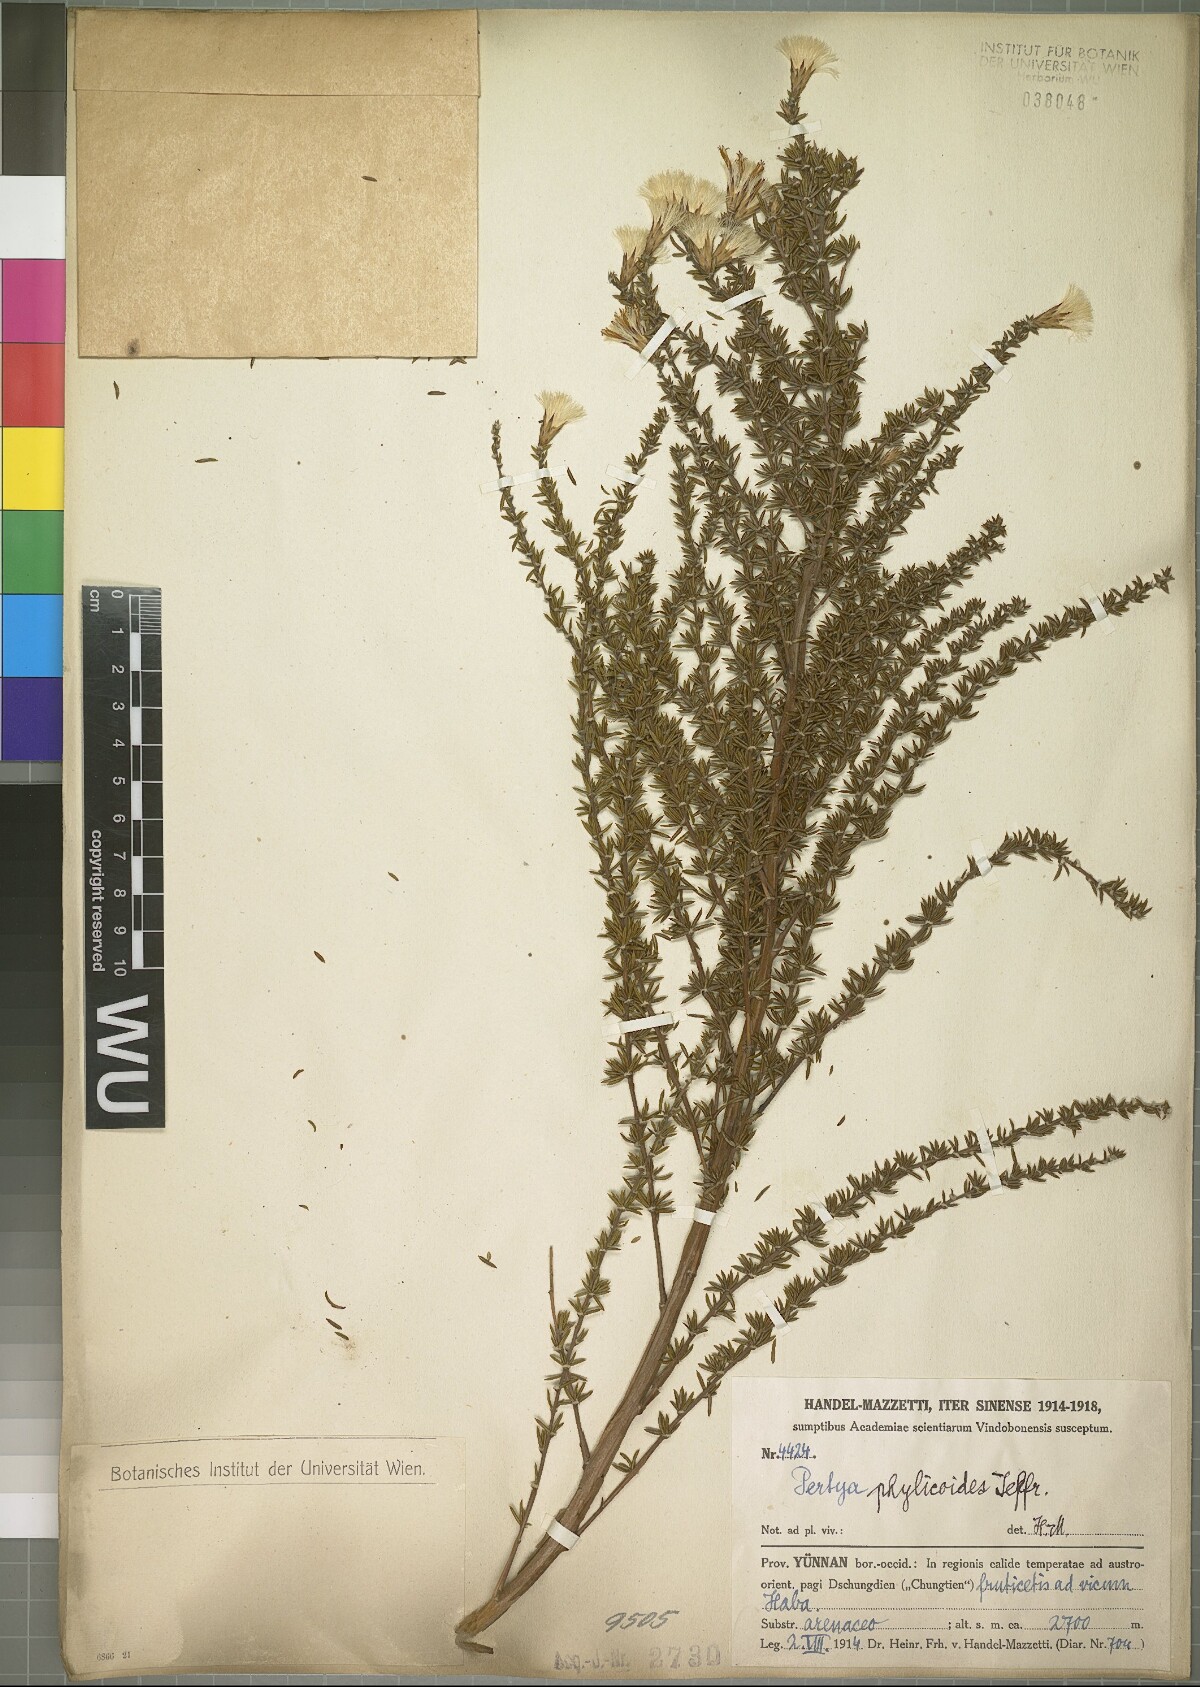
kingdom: Plantae
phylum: Tracheophyta
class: Magnoliopsida
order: Asterales
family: Asteraceae
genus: Pertya
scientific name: Pertya phylicoides
